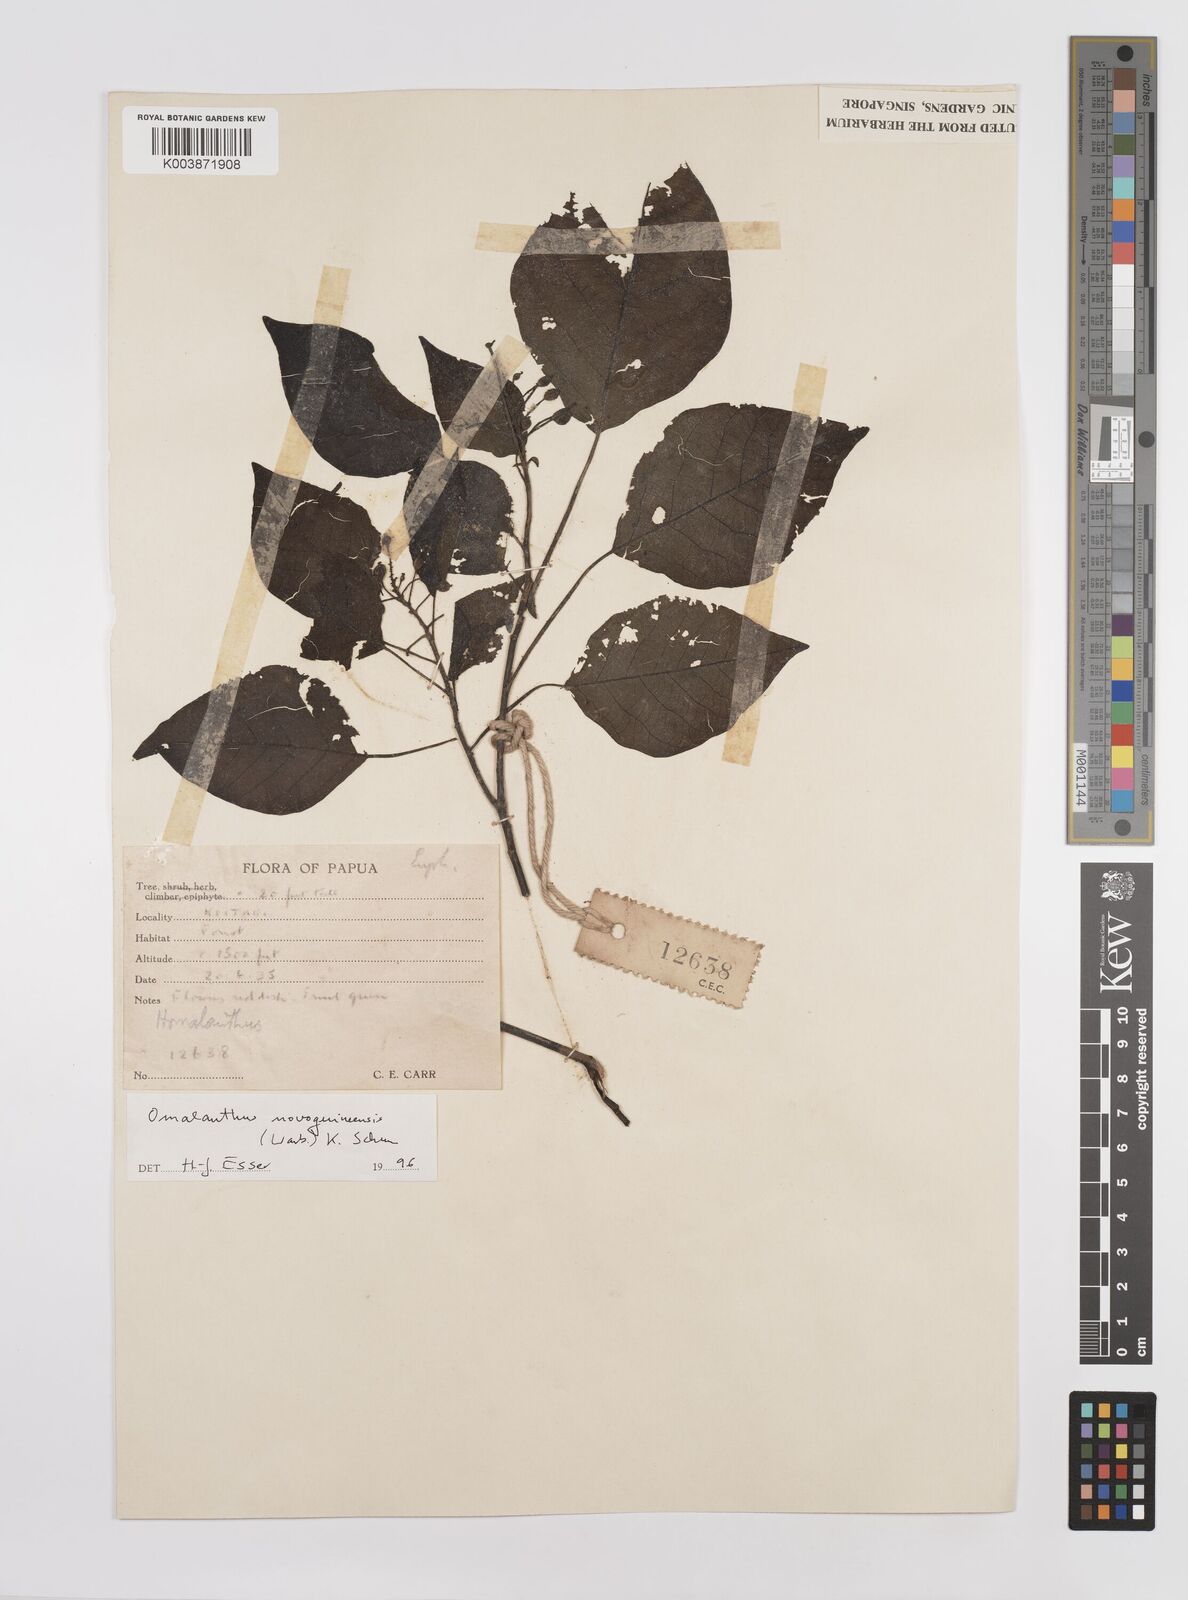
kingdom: Plantae
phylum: Tracheophyta
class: Magnoliopsida
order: Malpighiales
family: Euphorbiaceae
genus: Homalanthus
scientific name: Homalanthus novoguineensis
